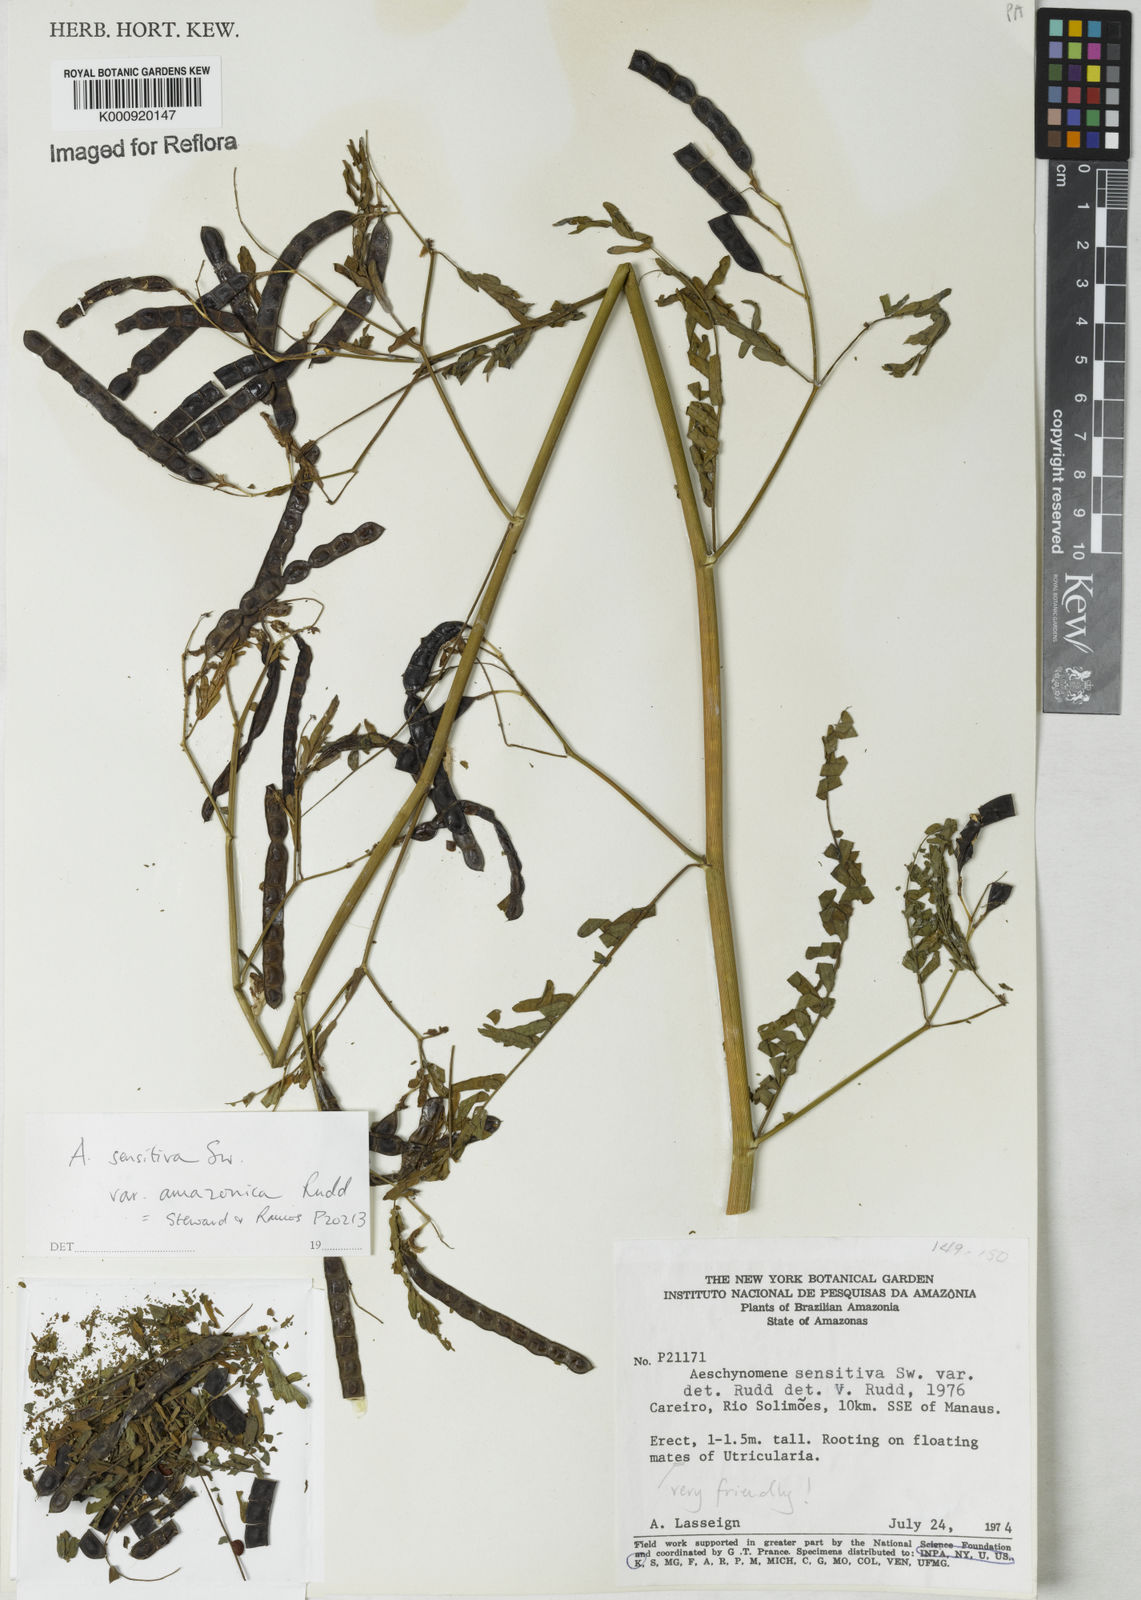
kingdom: Plantae
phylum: Tracheophyta
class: Magnoliopsida
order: Fabales
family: Fabaceae
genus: Aeschynomene
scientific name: Aeschynomene sensitiva
